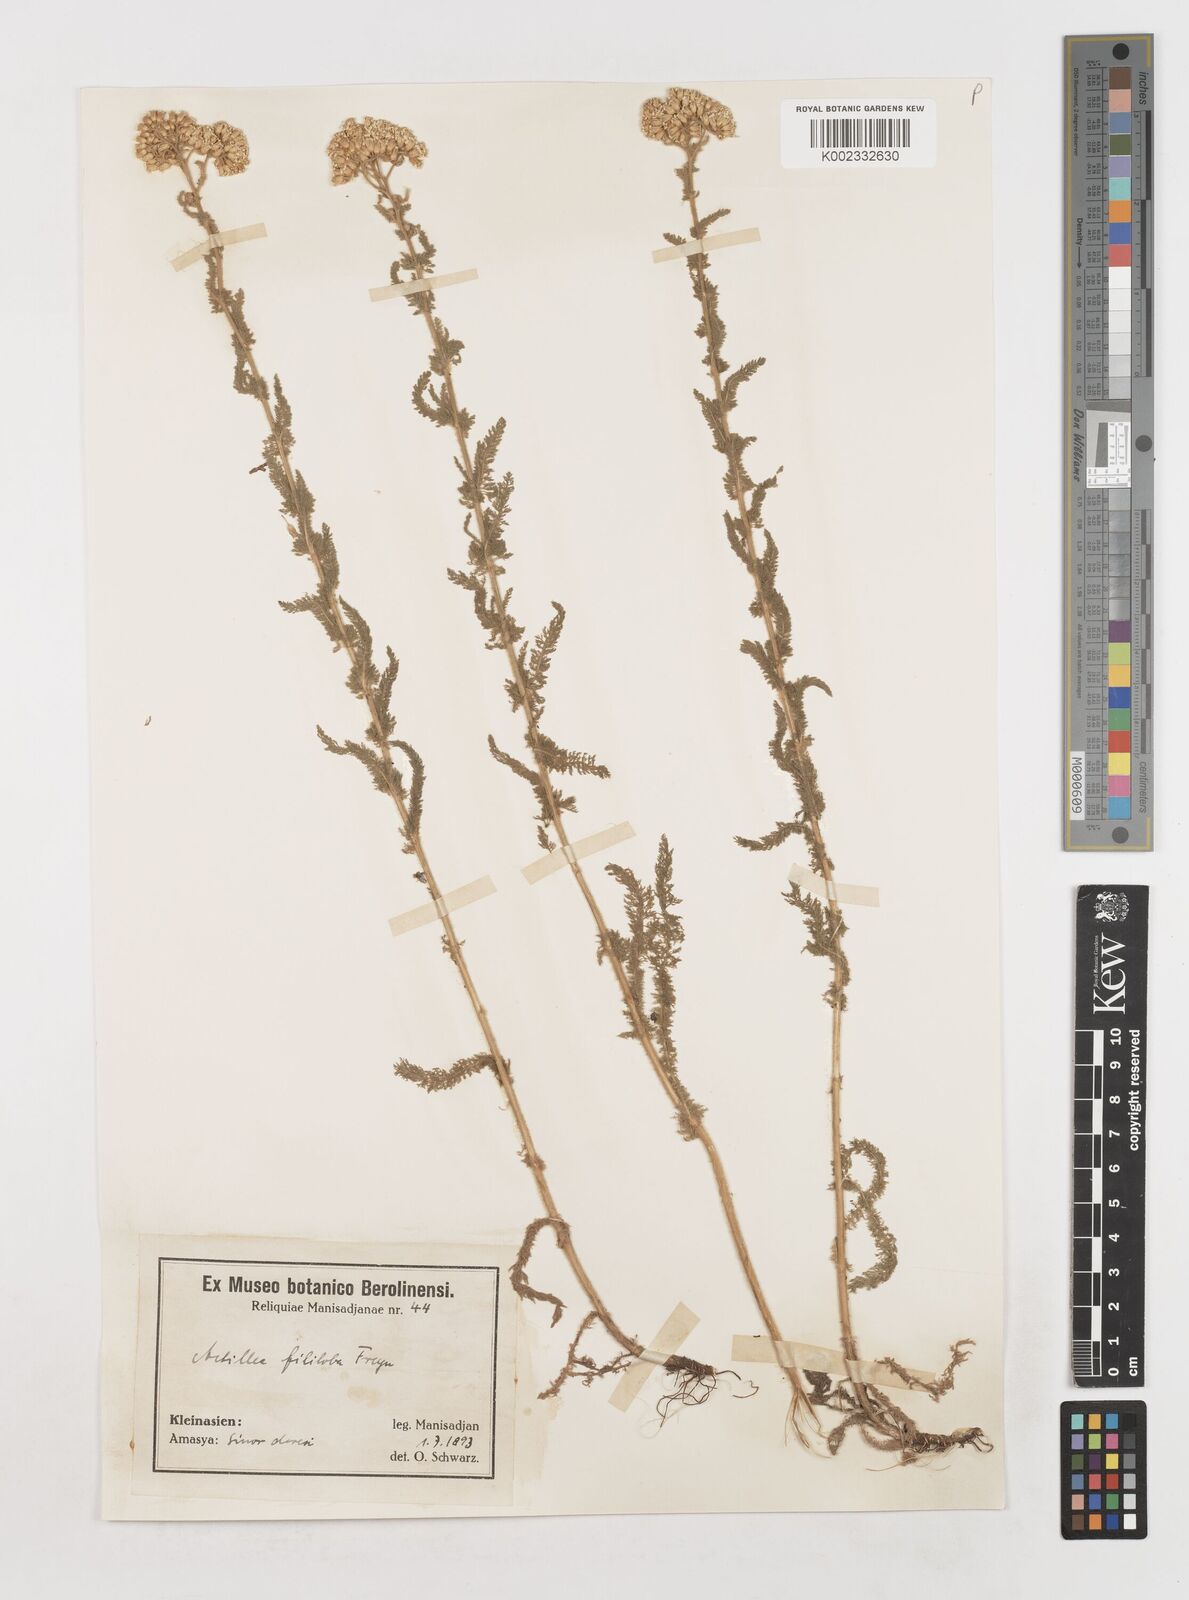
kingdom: Plantae
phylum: Tracheophyta
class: Magnoliopsida
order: Asterales
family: Asteraceae
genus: Achillea
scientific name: Achillea
